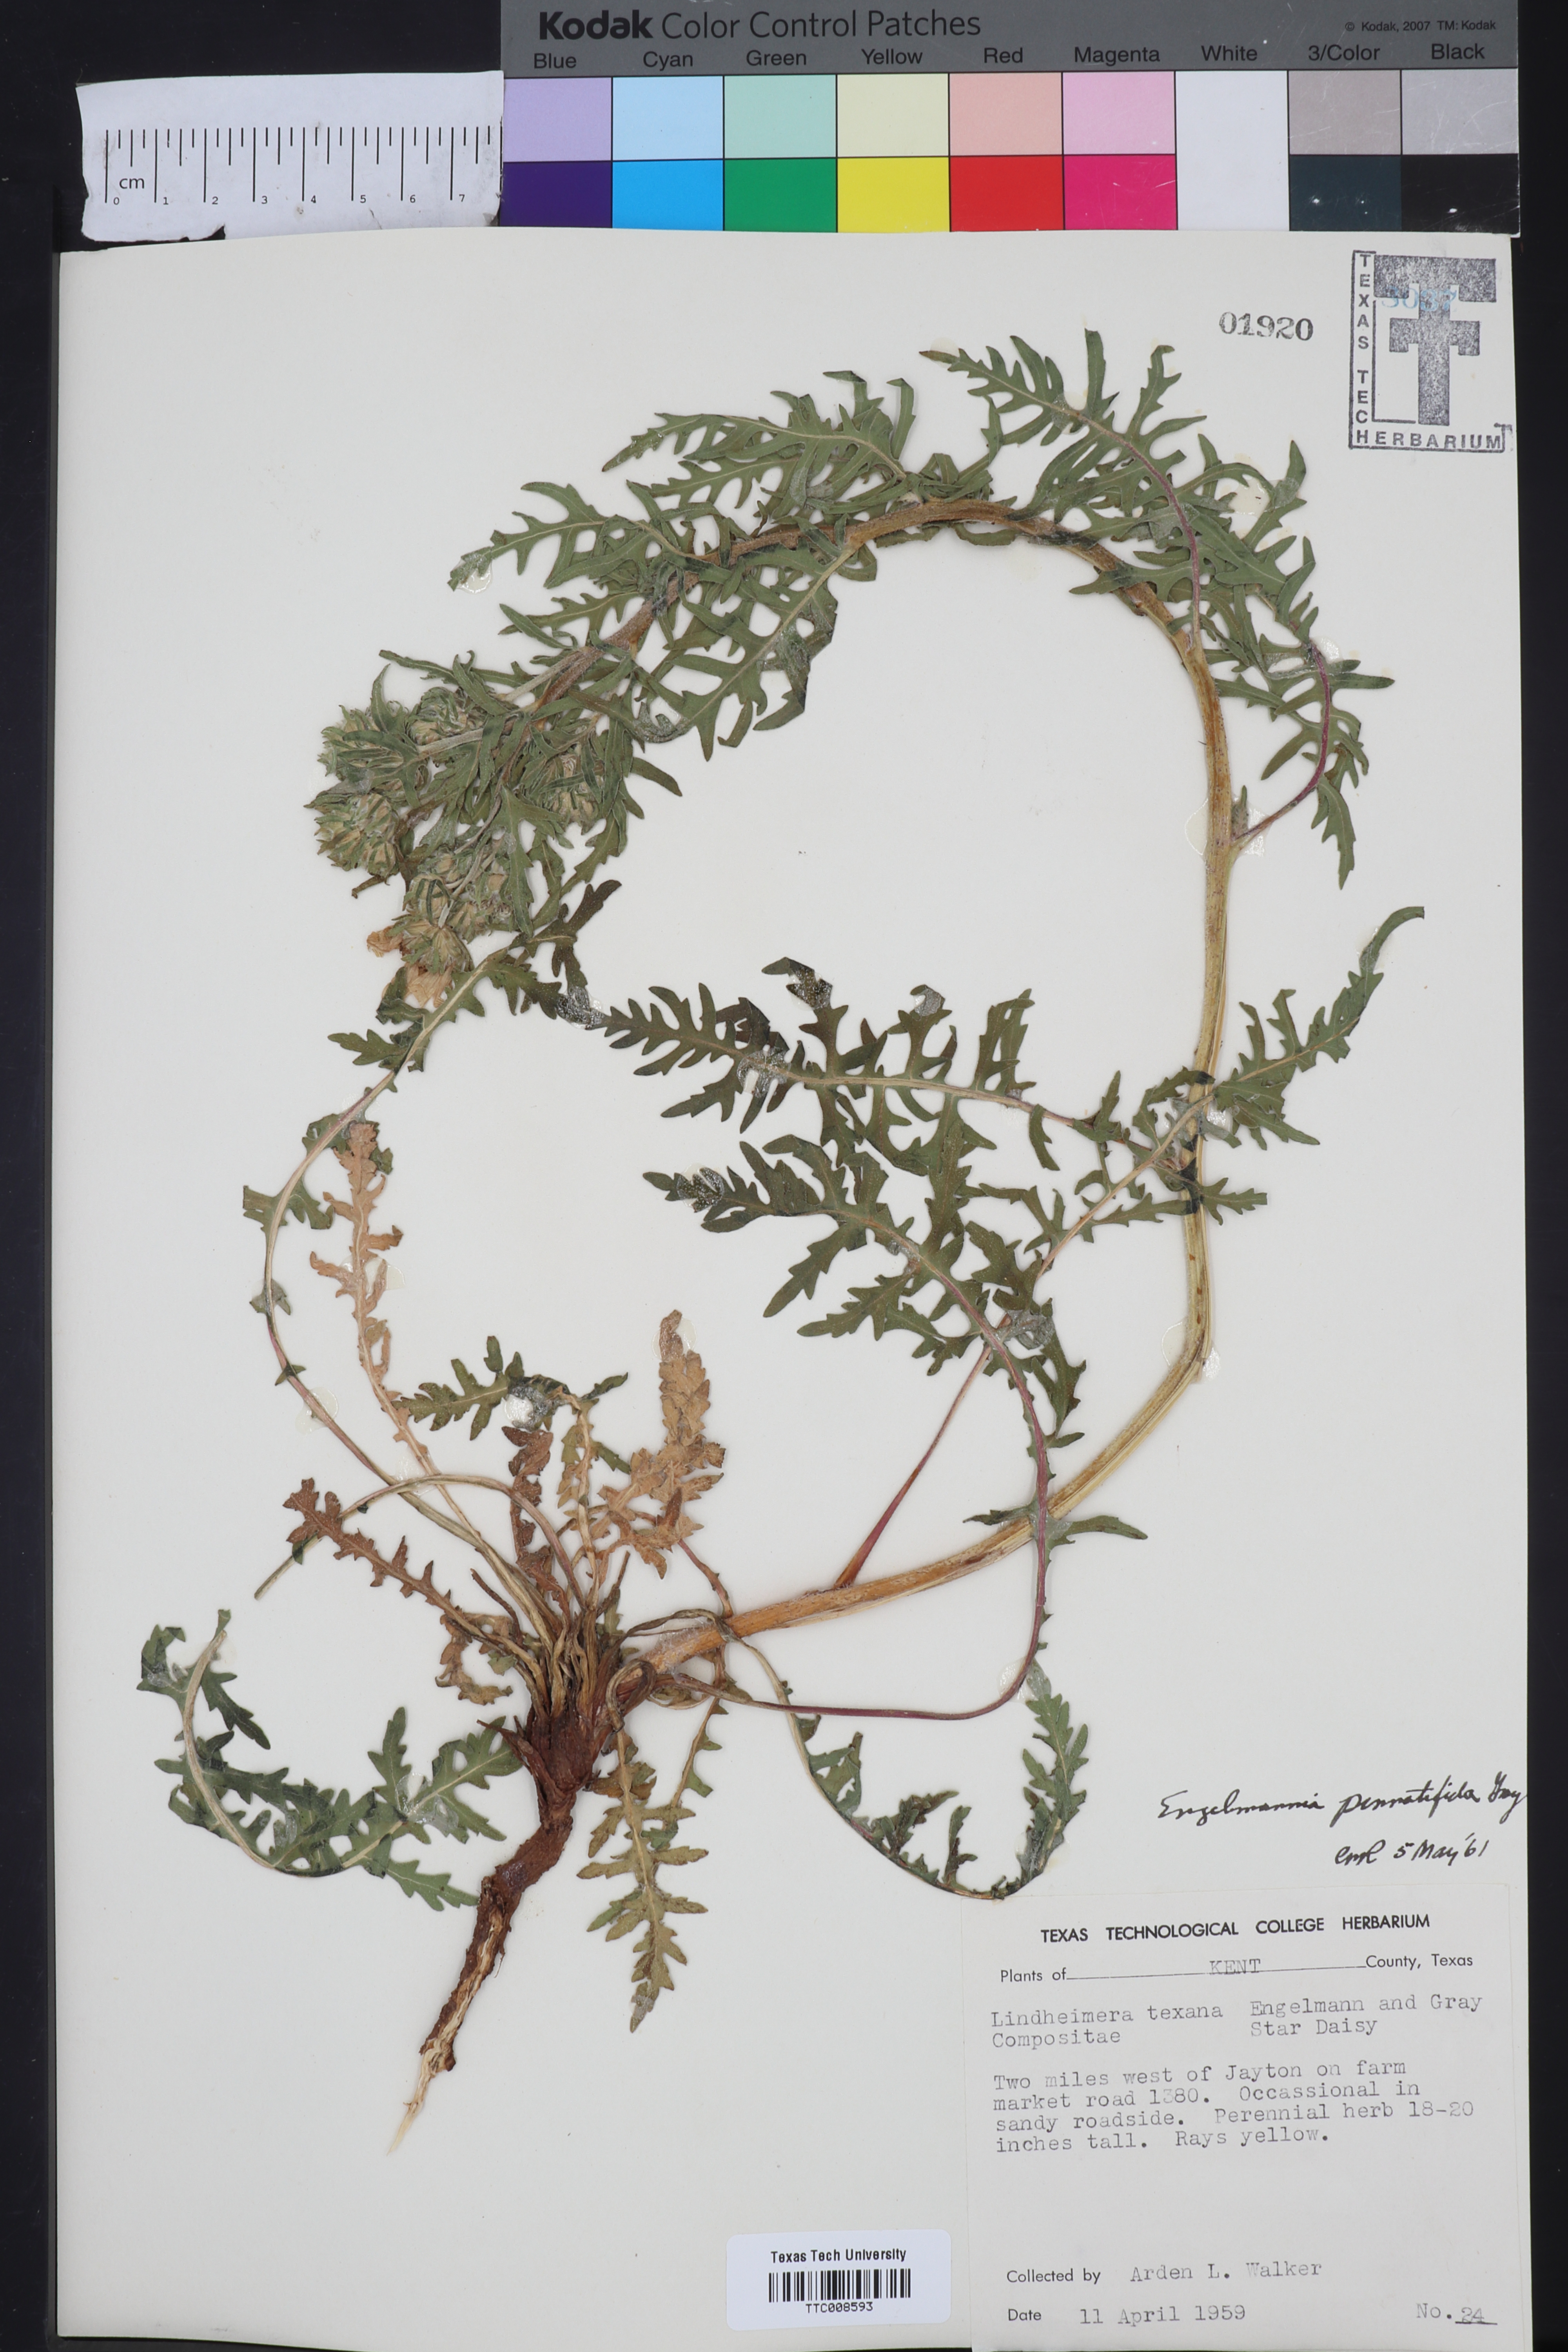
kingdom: Plantae
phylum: Tracheophyta
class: Magnoliopsida
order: Asterales
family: Asteraceae
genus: Engelmannia
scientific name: Engelmannia peristenia
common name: Engelmann's daisy
